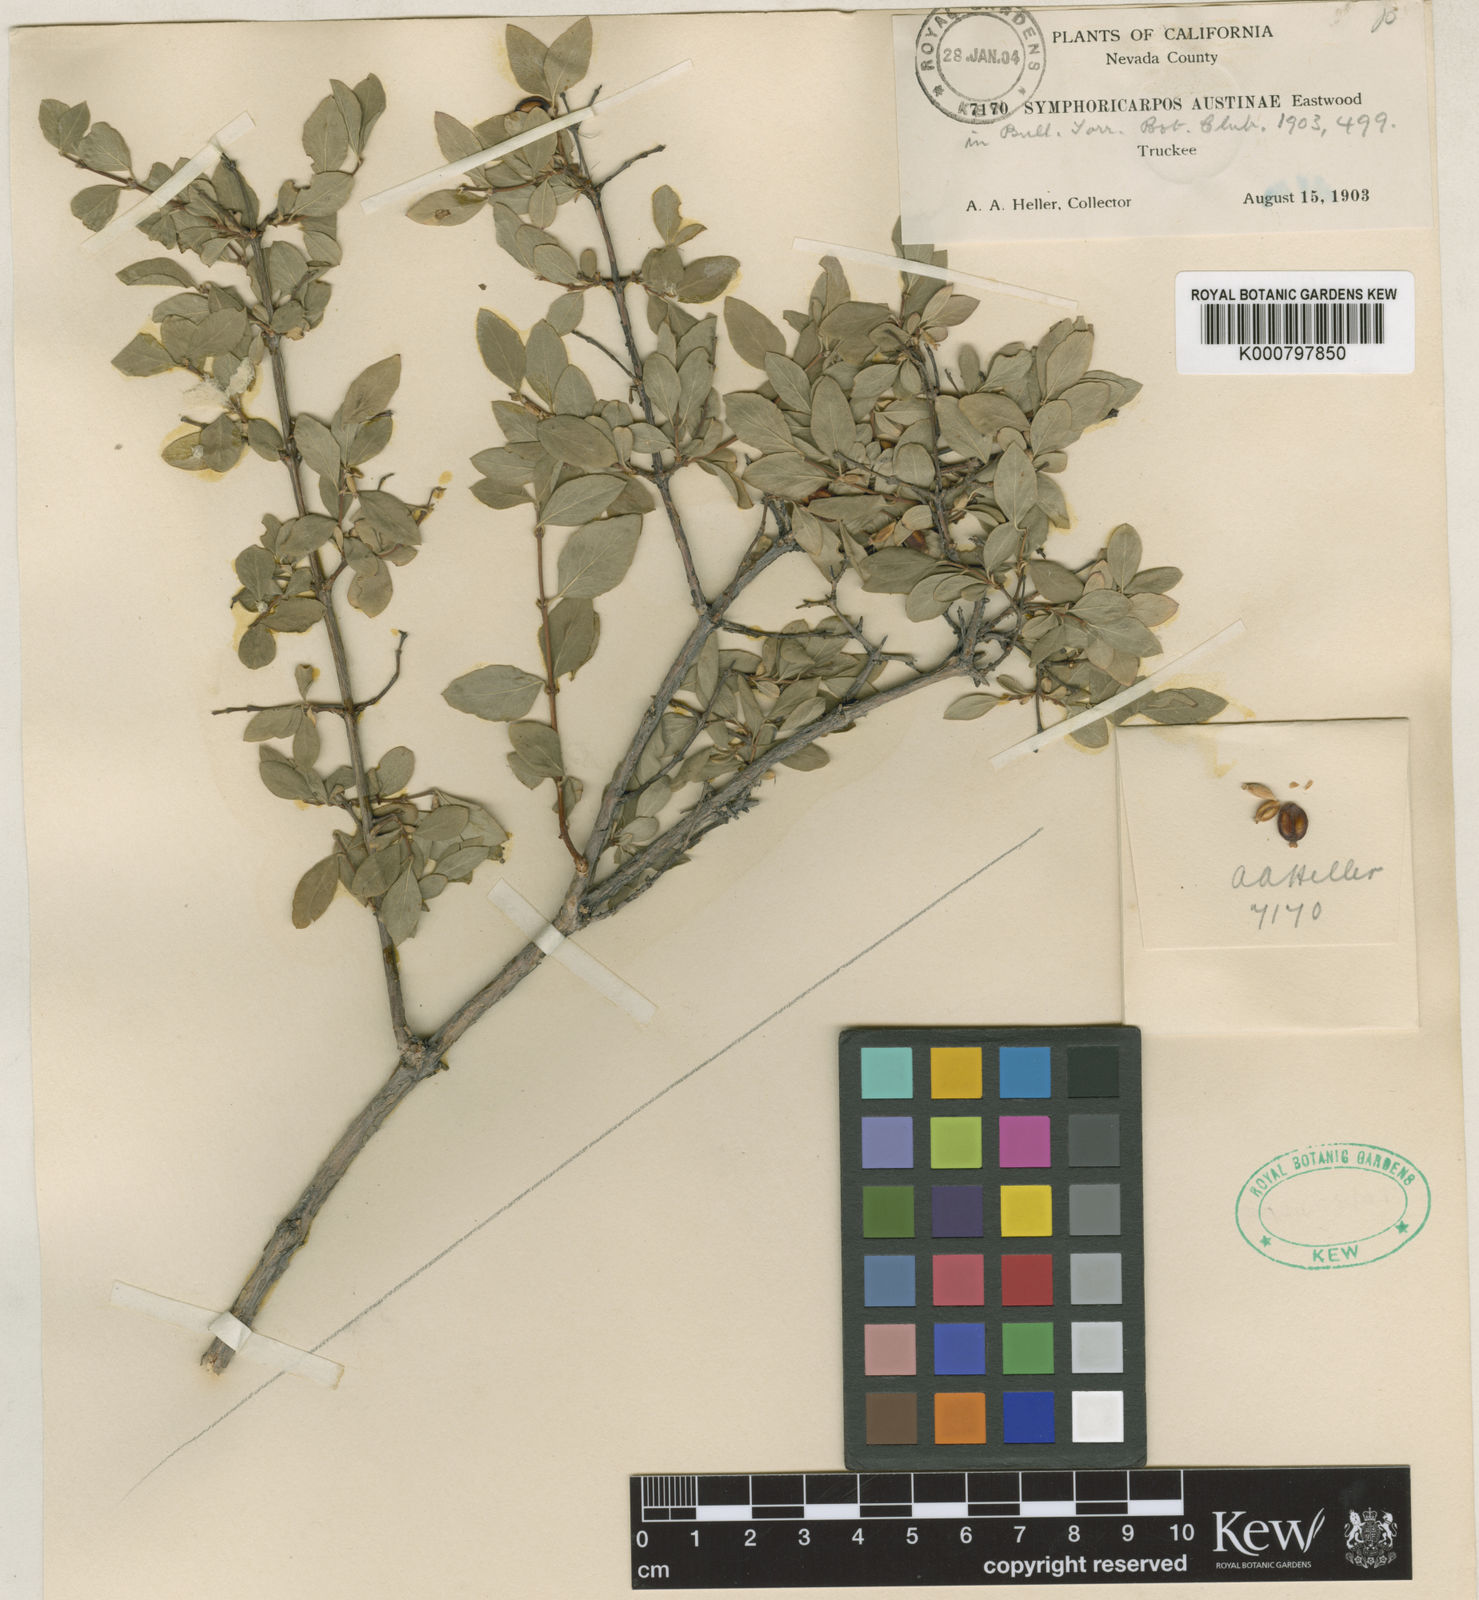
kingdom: Plantae
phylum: Tracheophyta
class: Magnoliopsida
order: Dipsacales
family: Caprifoliaceae
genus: Symphoricarpos
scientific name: Symphoricarpos rotundifolius
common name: Round-leaved snowberry
